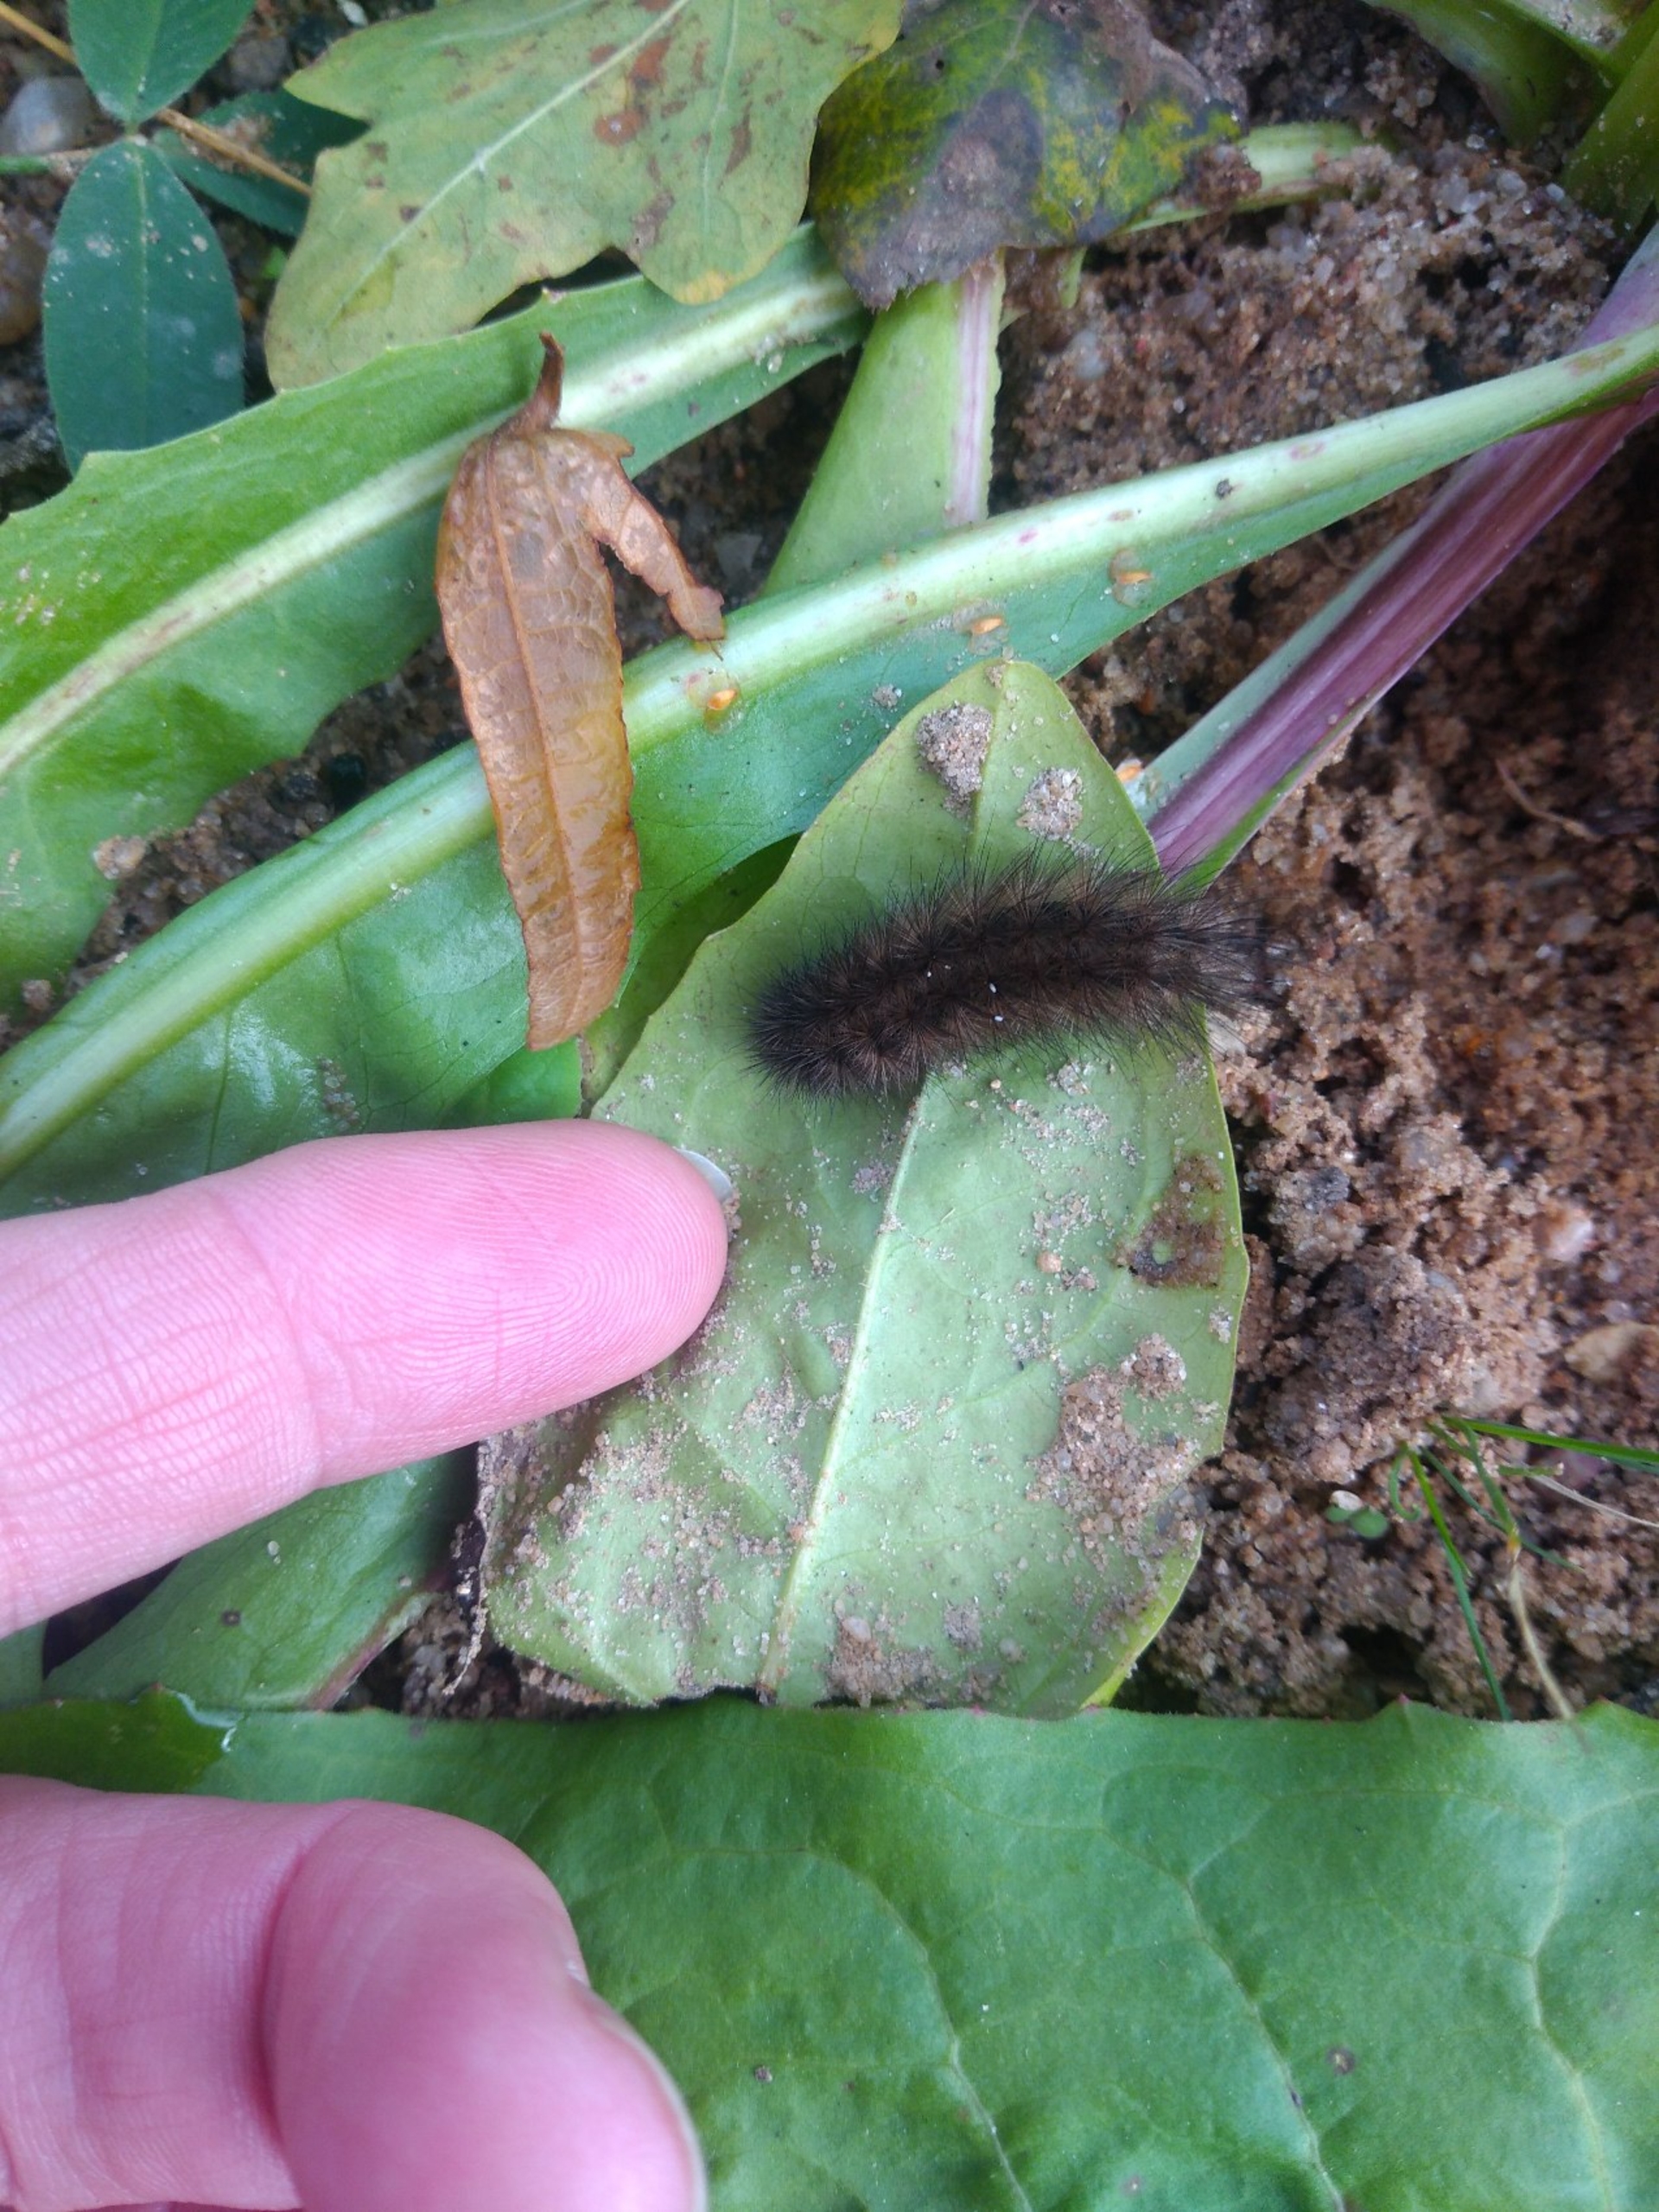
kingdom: Animalia
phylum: Arthropoda
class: Insecta
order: Lepidoptera
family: Erebidae
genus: Phragmatobia
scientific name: Phragmatobia fuliginosa
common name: Kanelbjørn
